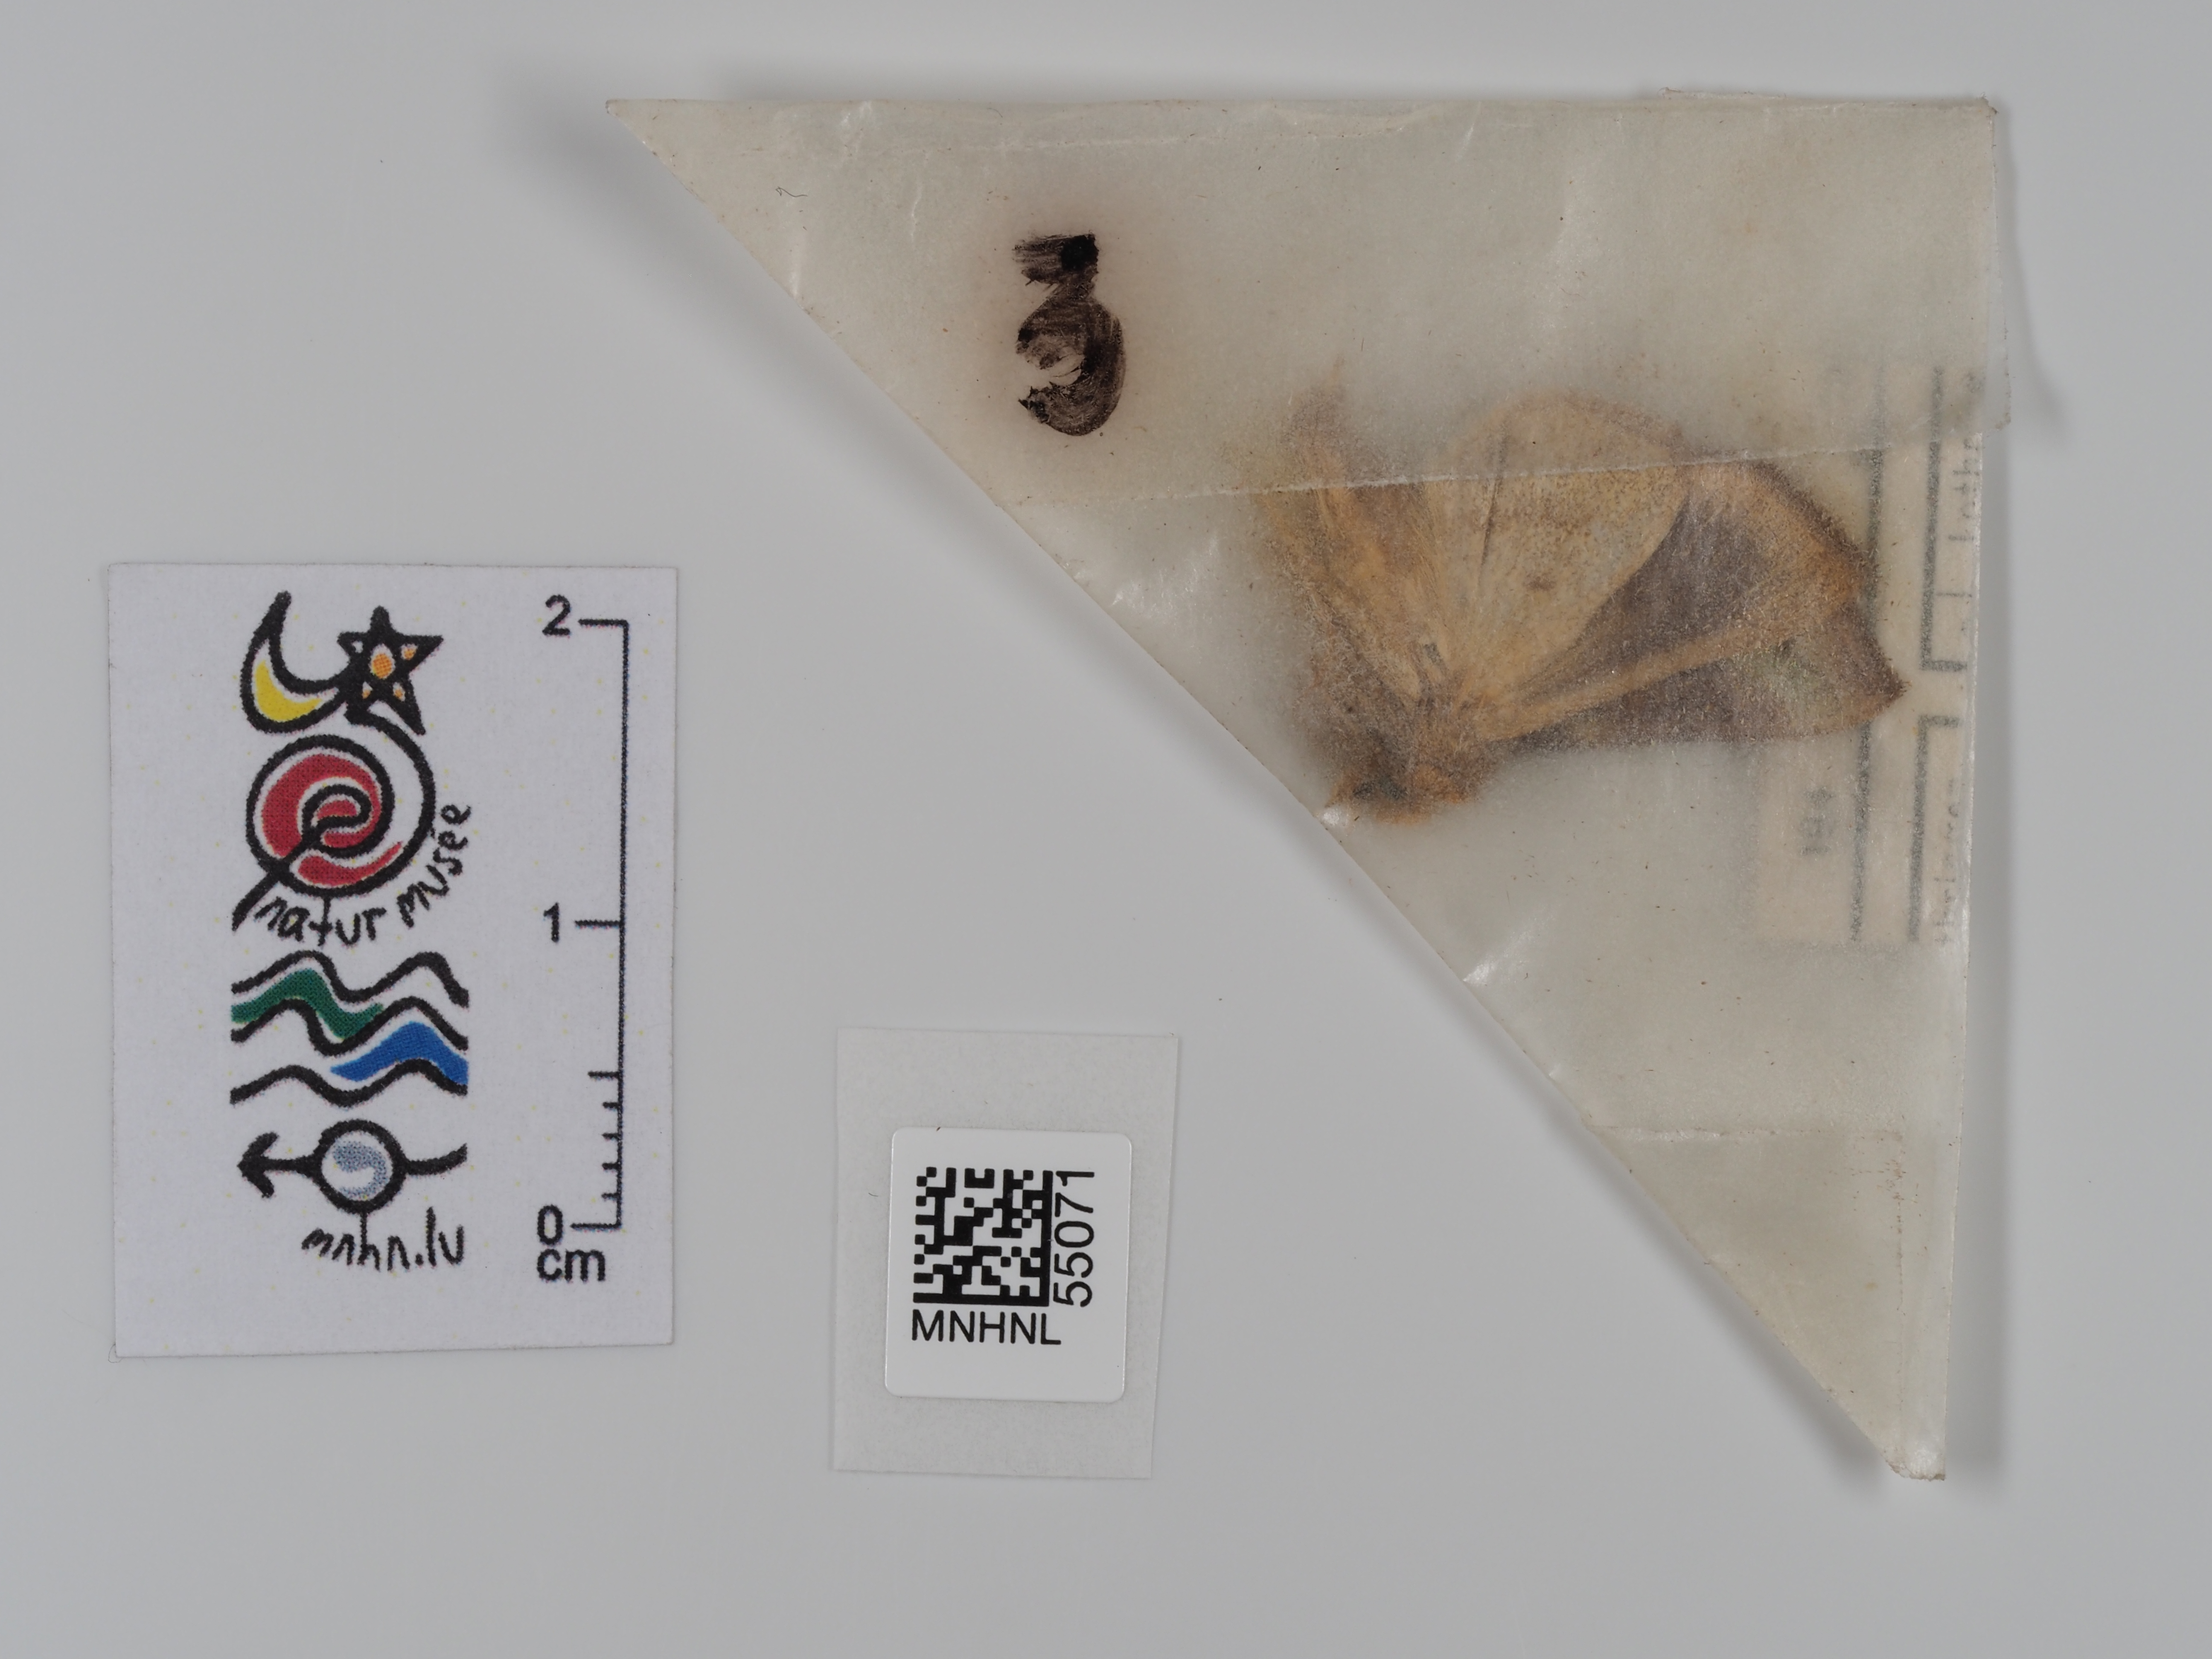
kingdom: Animalia
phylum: Arthropoda
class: Insecta
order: Lepidoptera
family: Noctuidae
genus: Diachrysia
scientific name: Diachrysia chrysitis
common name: Burnished brass
